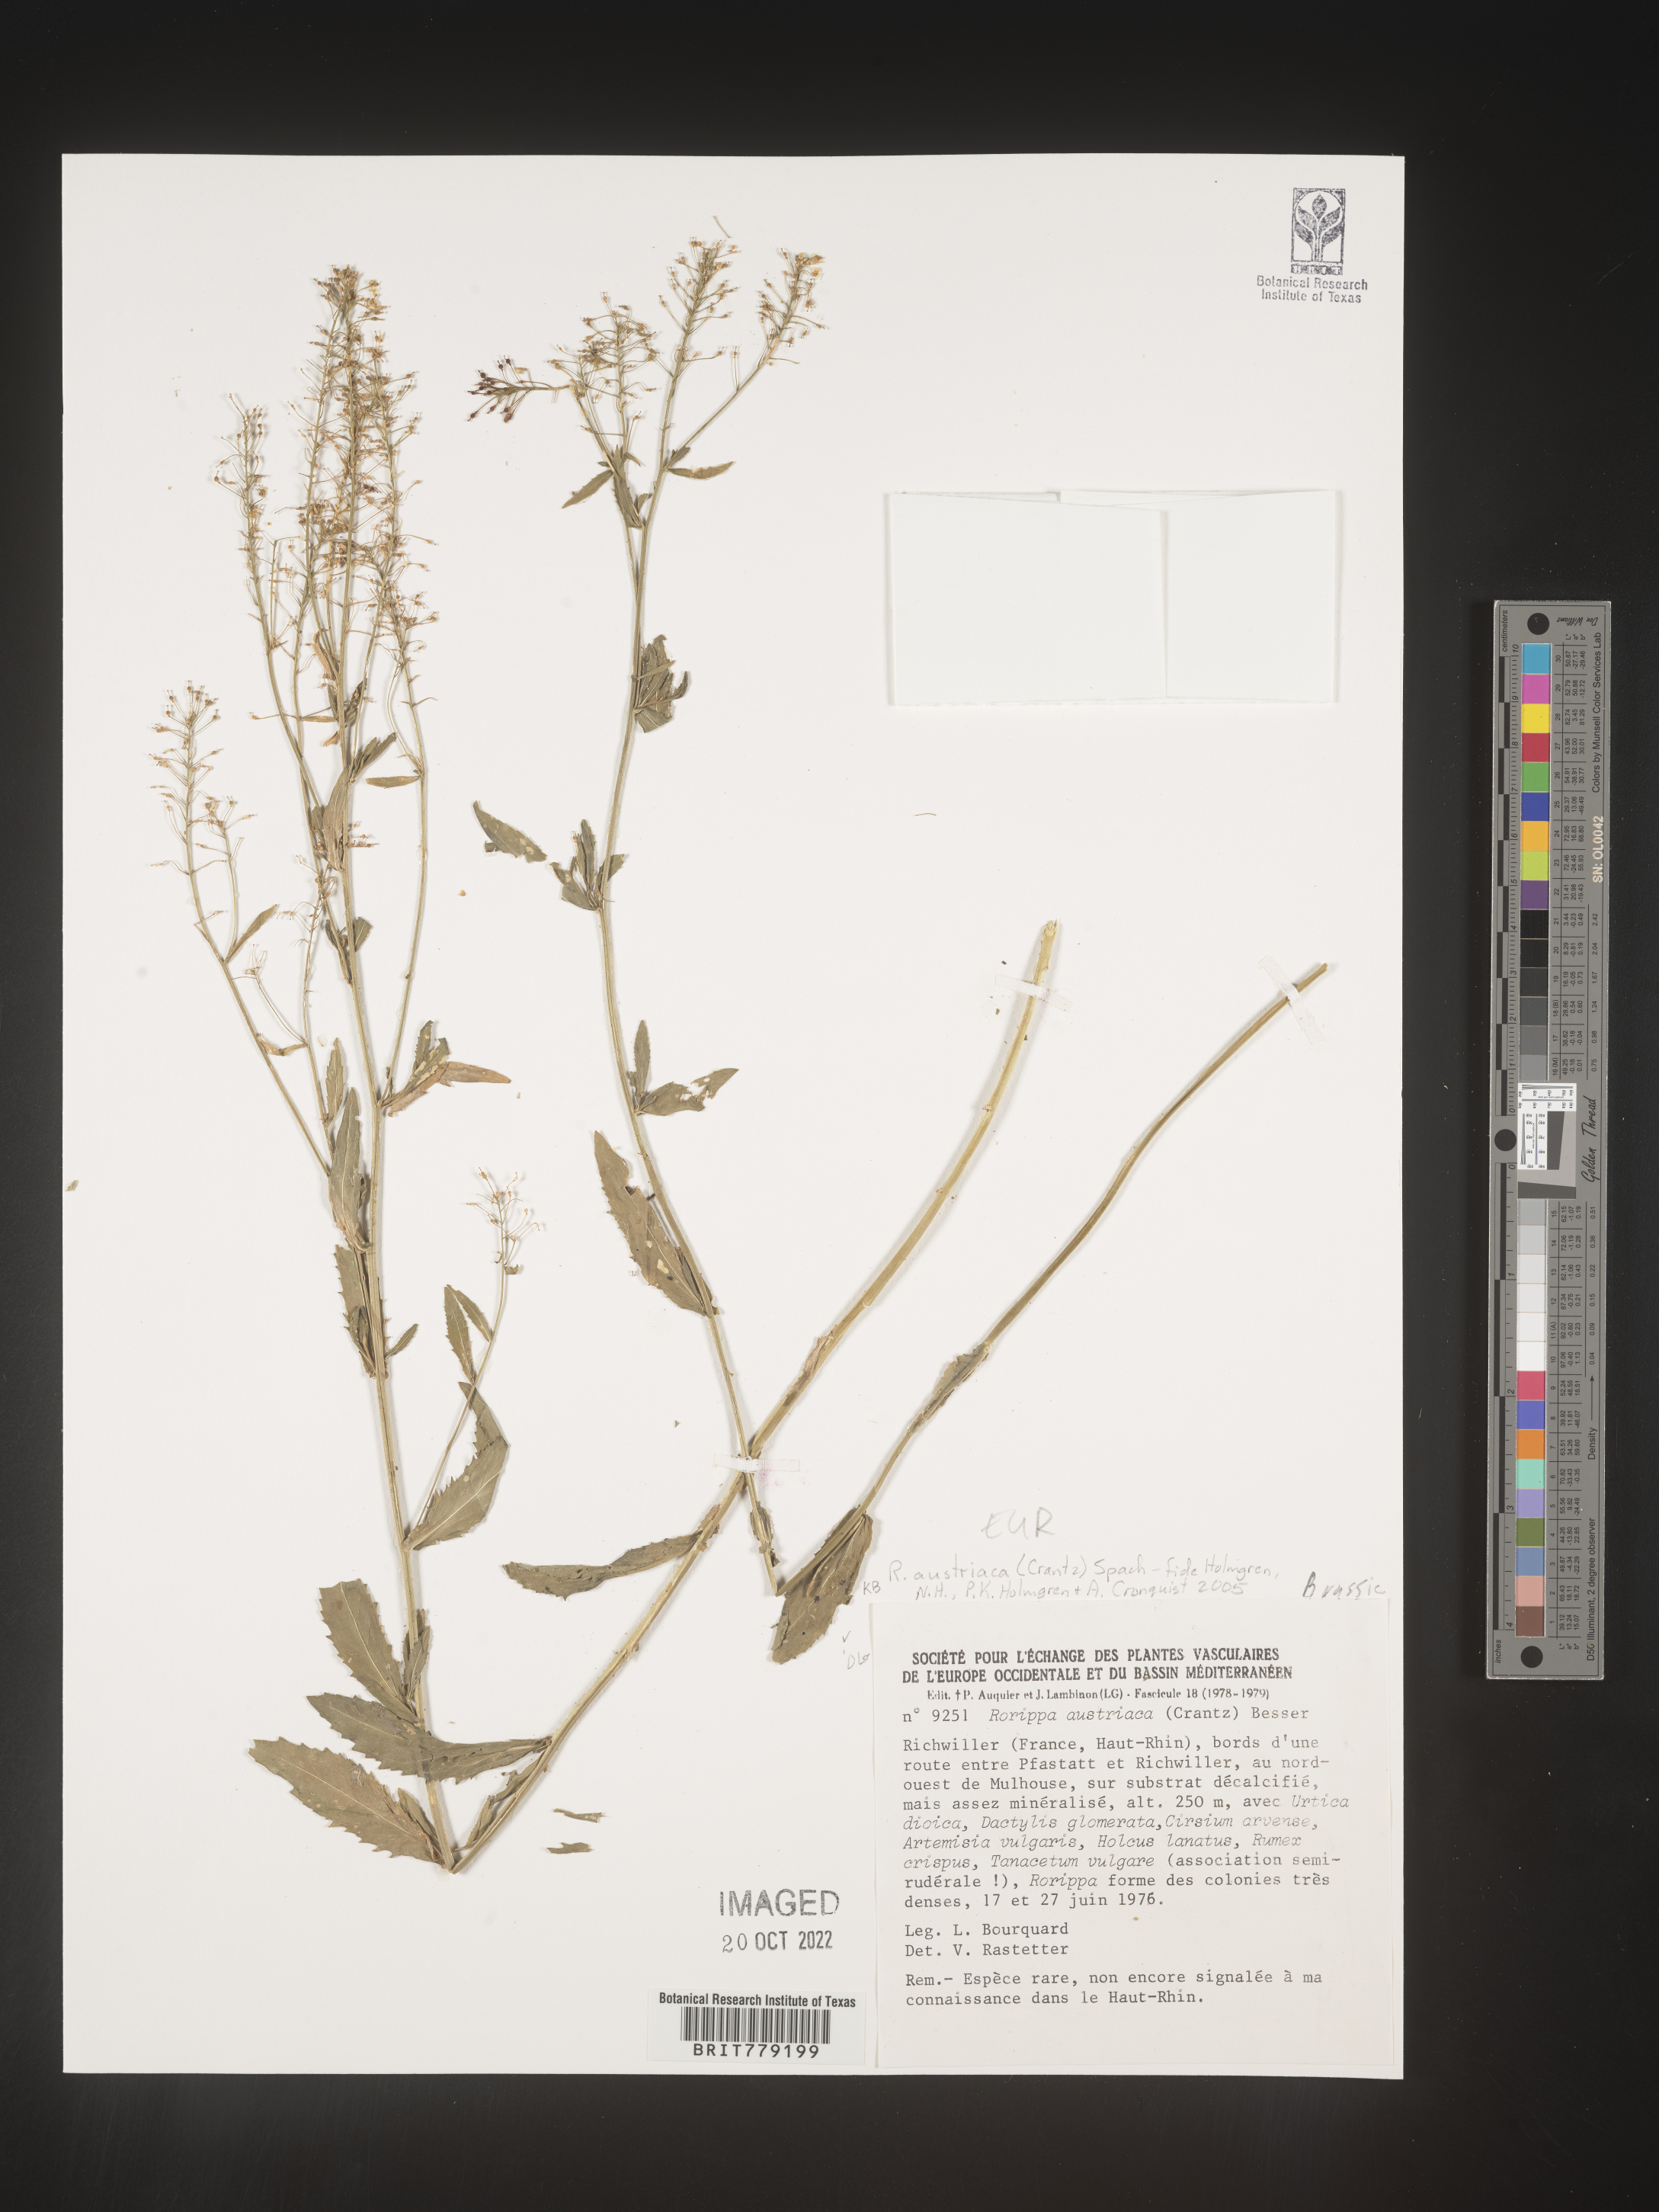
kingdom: Plantae
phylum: Tracheophyta
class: Magnoliopsida
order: Brassicales
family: Brassicaceae
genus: Rorippa
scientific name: Rorippa
